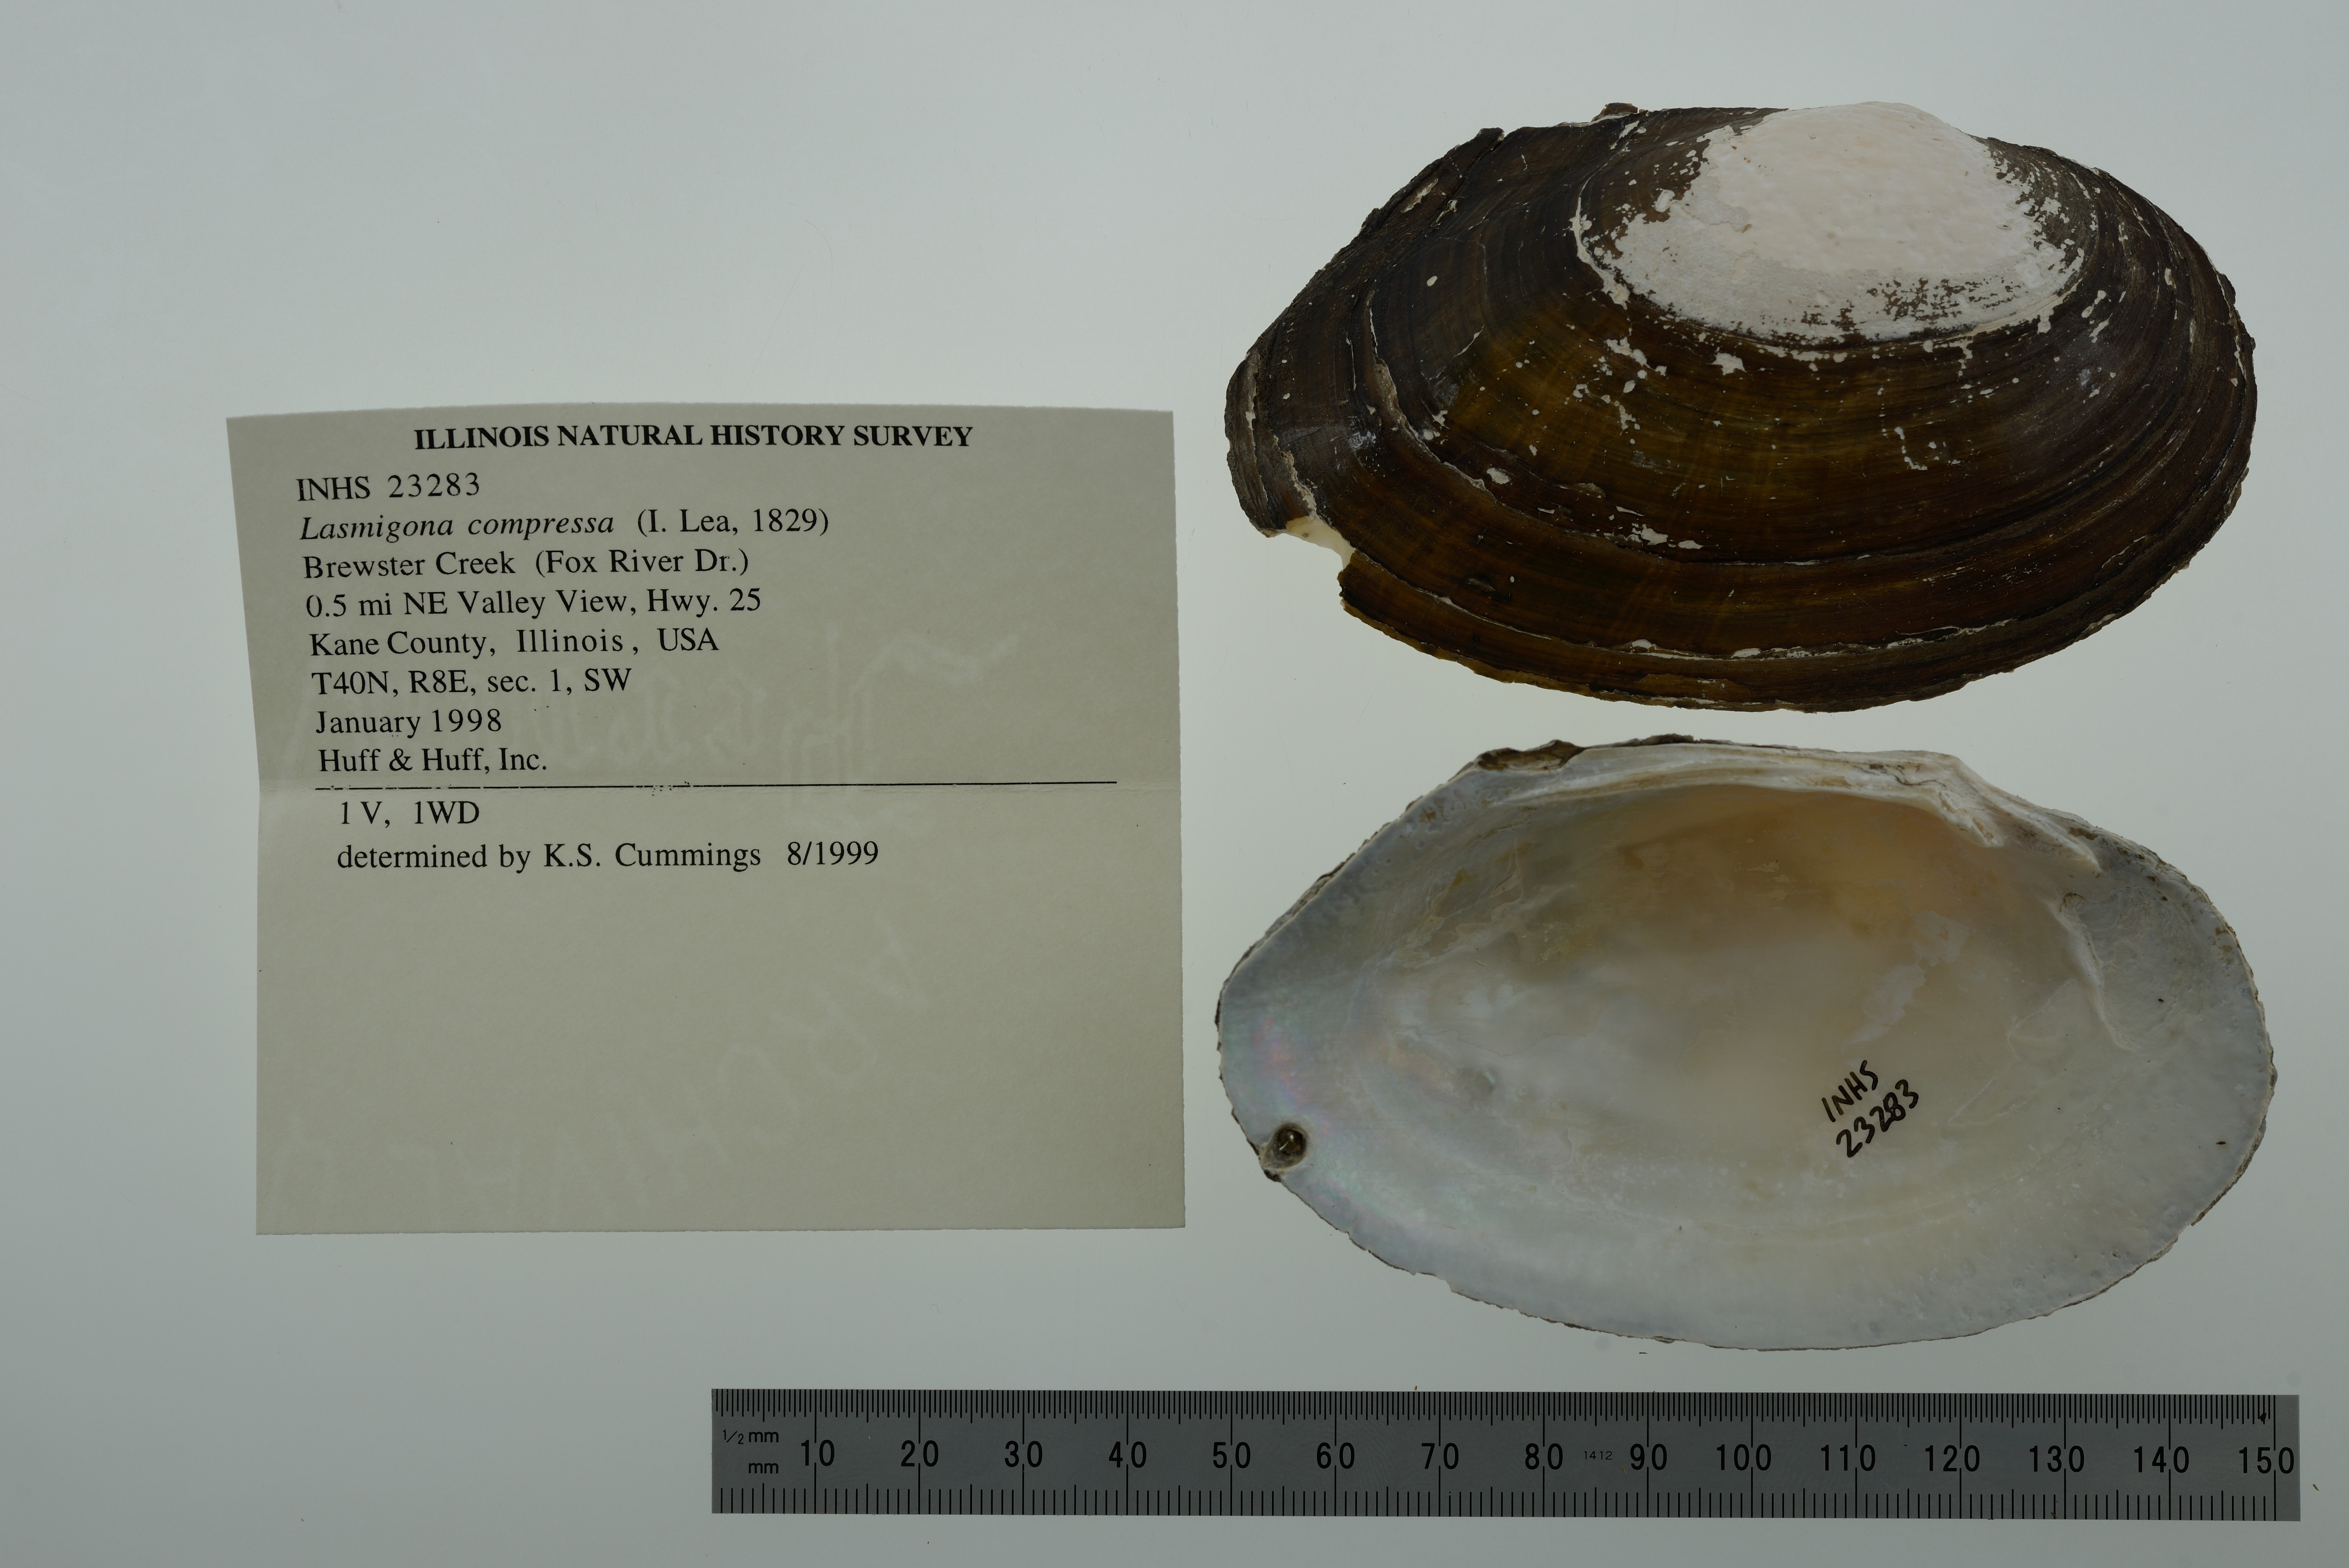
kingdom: Animalia
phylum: Mollusca
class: Bivalvia
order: Unionida
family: Unionidae
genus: Lasmigona
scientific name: Lasmigona compressa
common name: Creek heelsplitter
